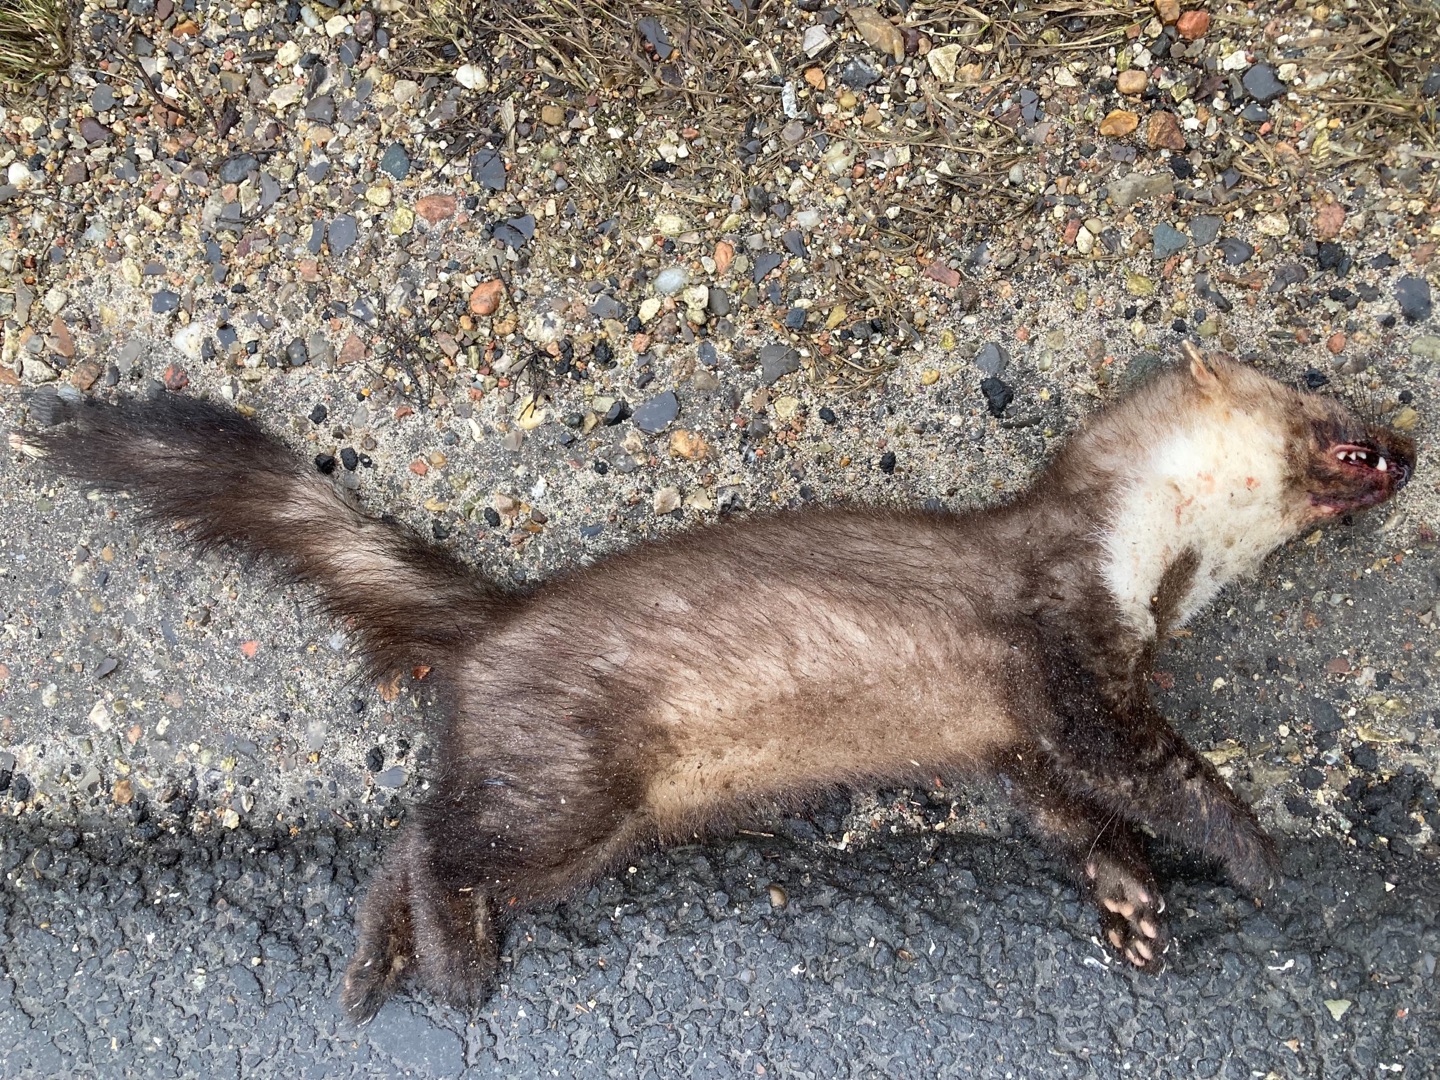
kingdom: Animalia
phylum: Chordata
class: Mammalia
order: Carnivora
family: Mustelidae
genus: Martes
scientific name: Martes foina
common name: Husmår
